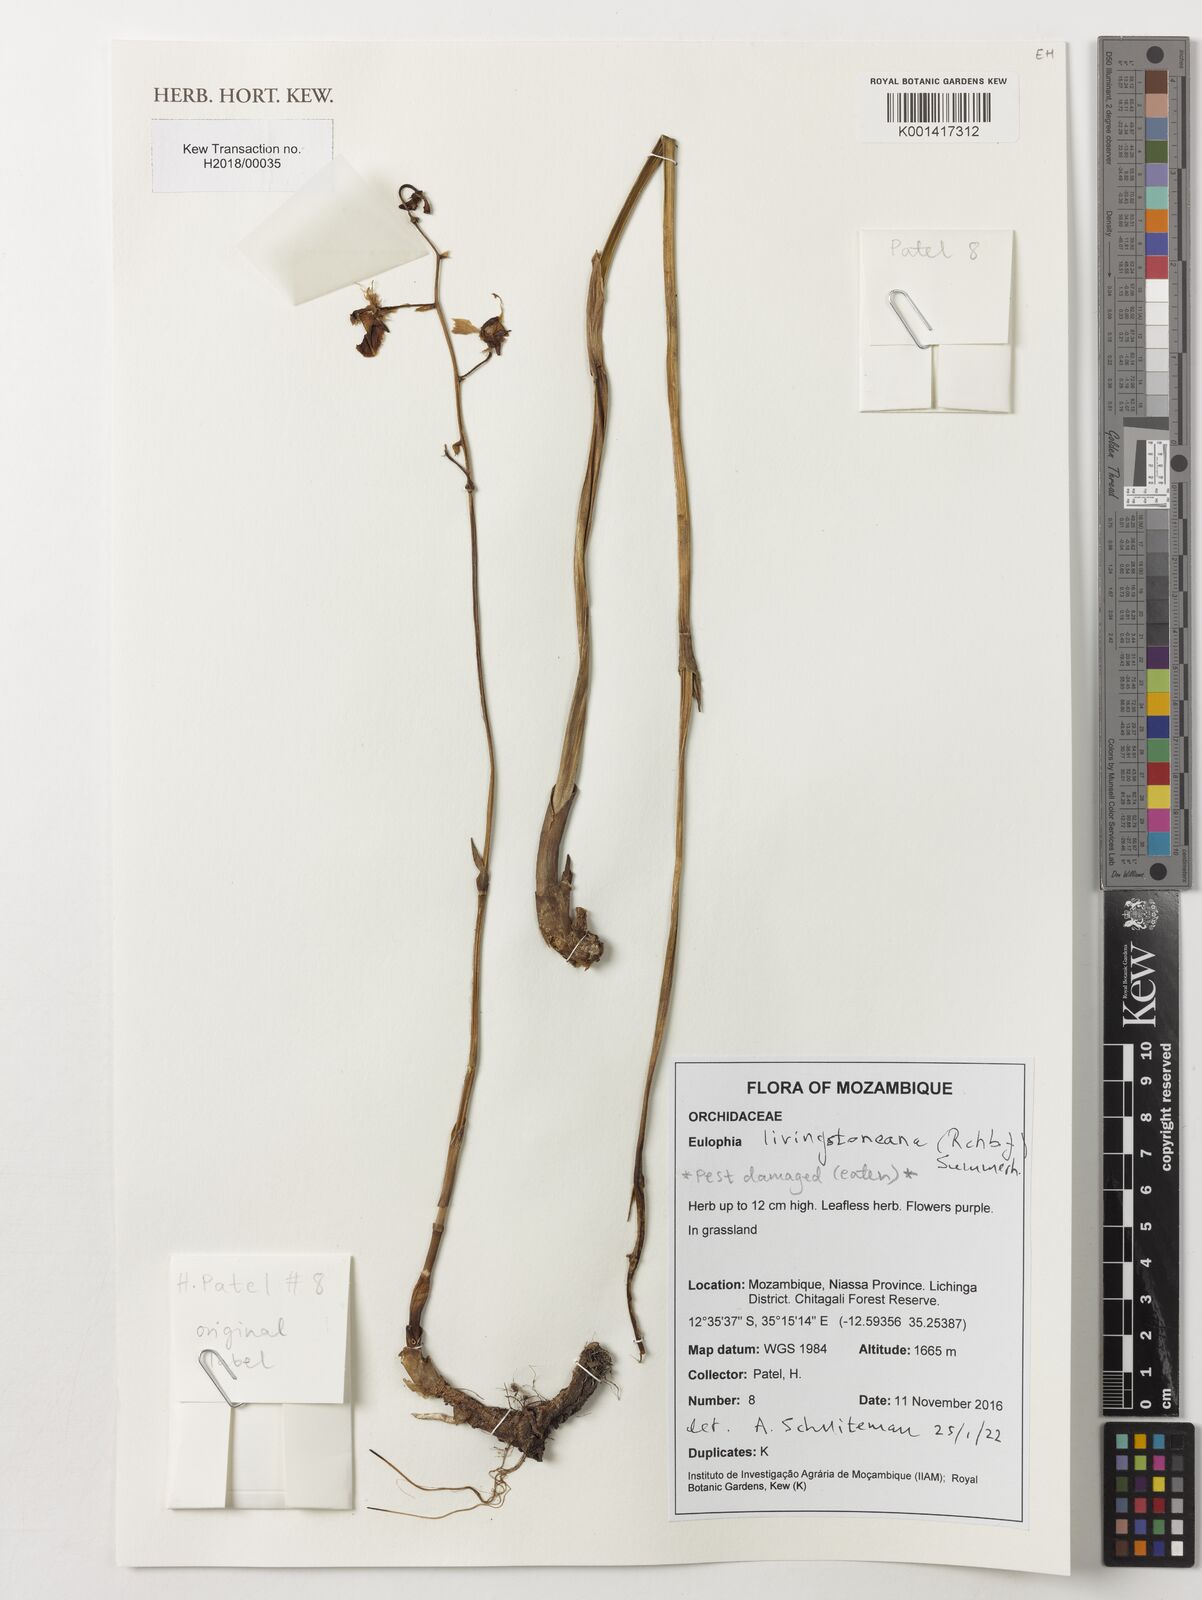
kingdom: Plantae
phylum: Tracheophyta
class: Liliopsida
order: Asparagales
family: Orchidaceae
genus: Eulophia
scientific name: Eulophia livingstoneana
